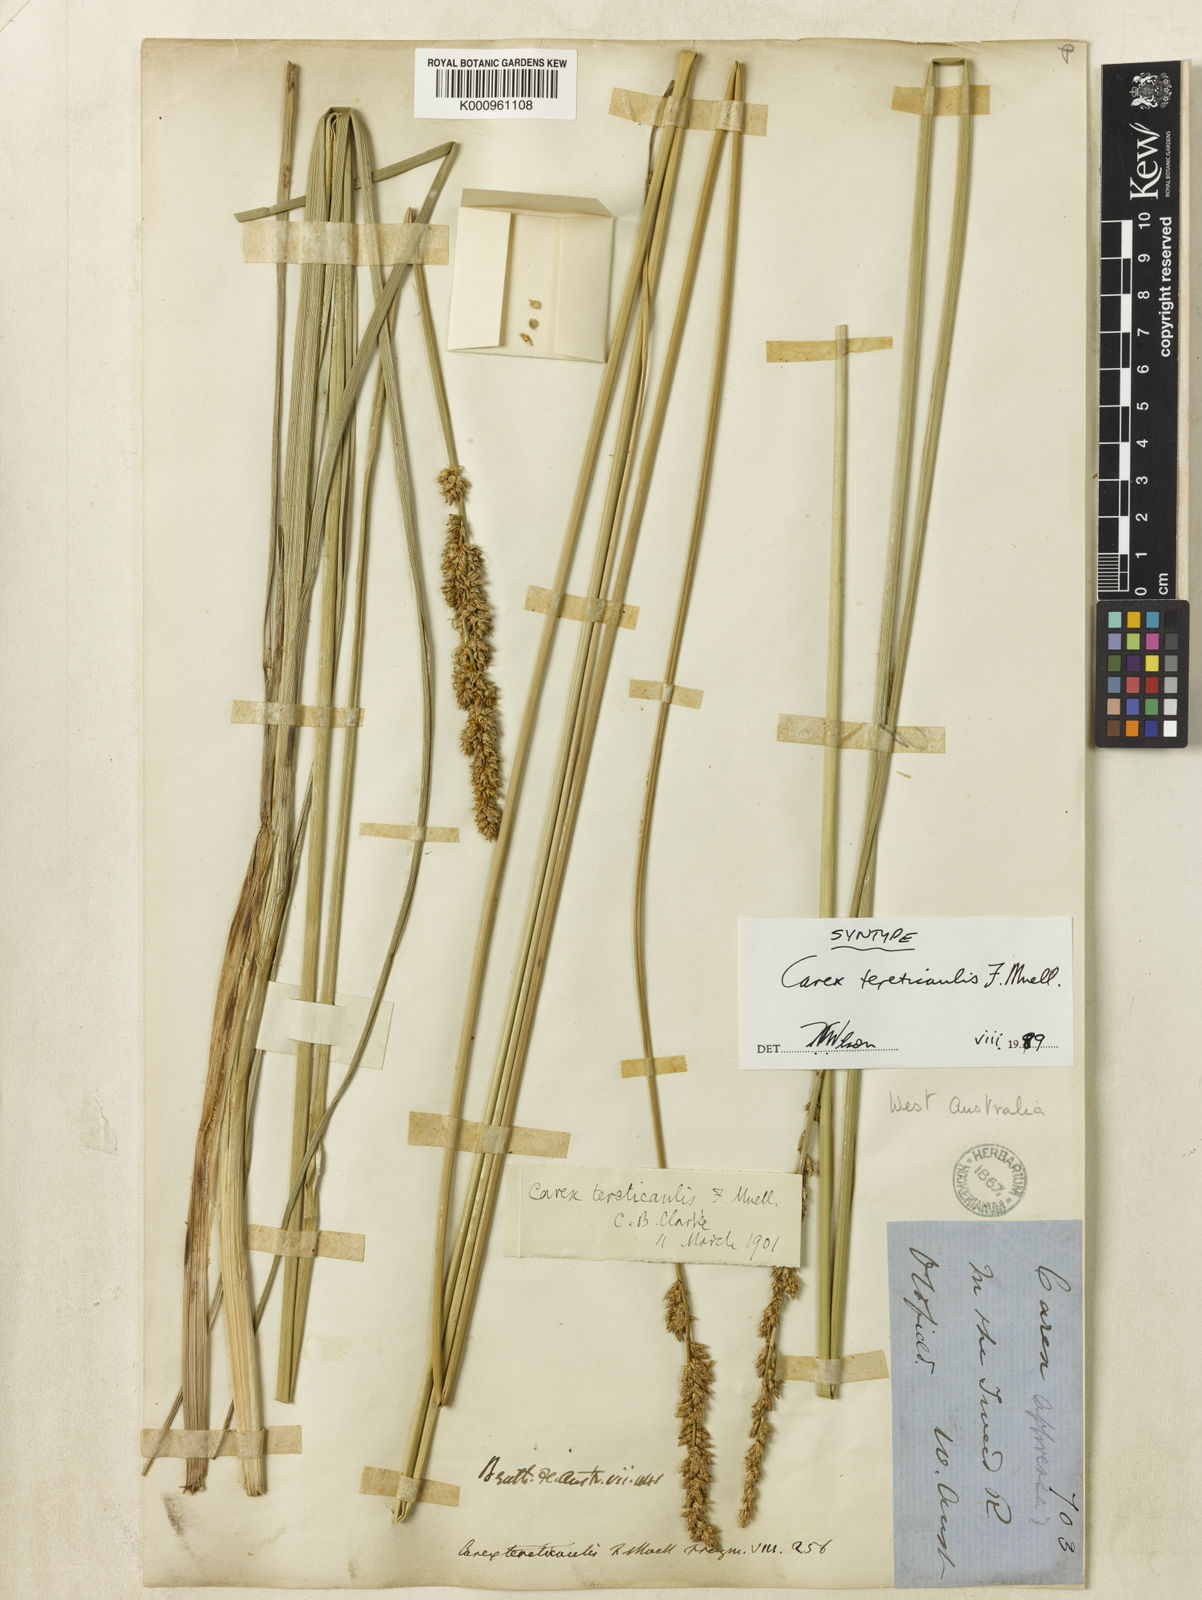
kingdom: Plantae
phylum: Tracheophyta
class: Liliopsida
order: Poales
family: Cyperaceae
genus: Carex
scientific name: Carex tereticaulis
